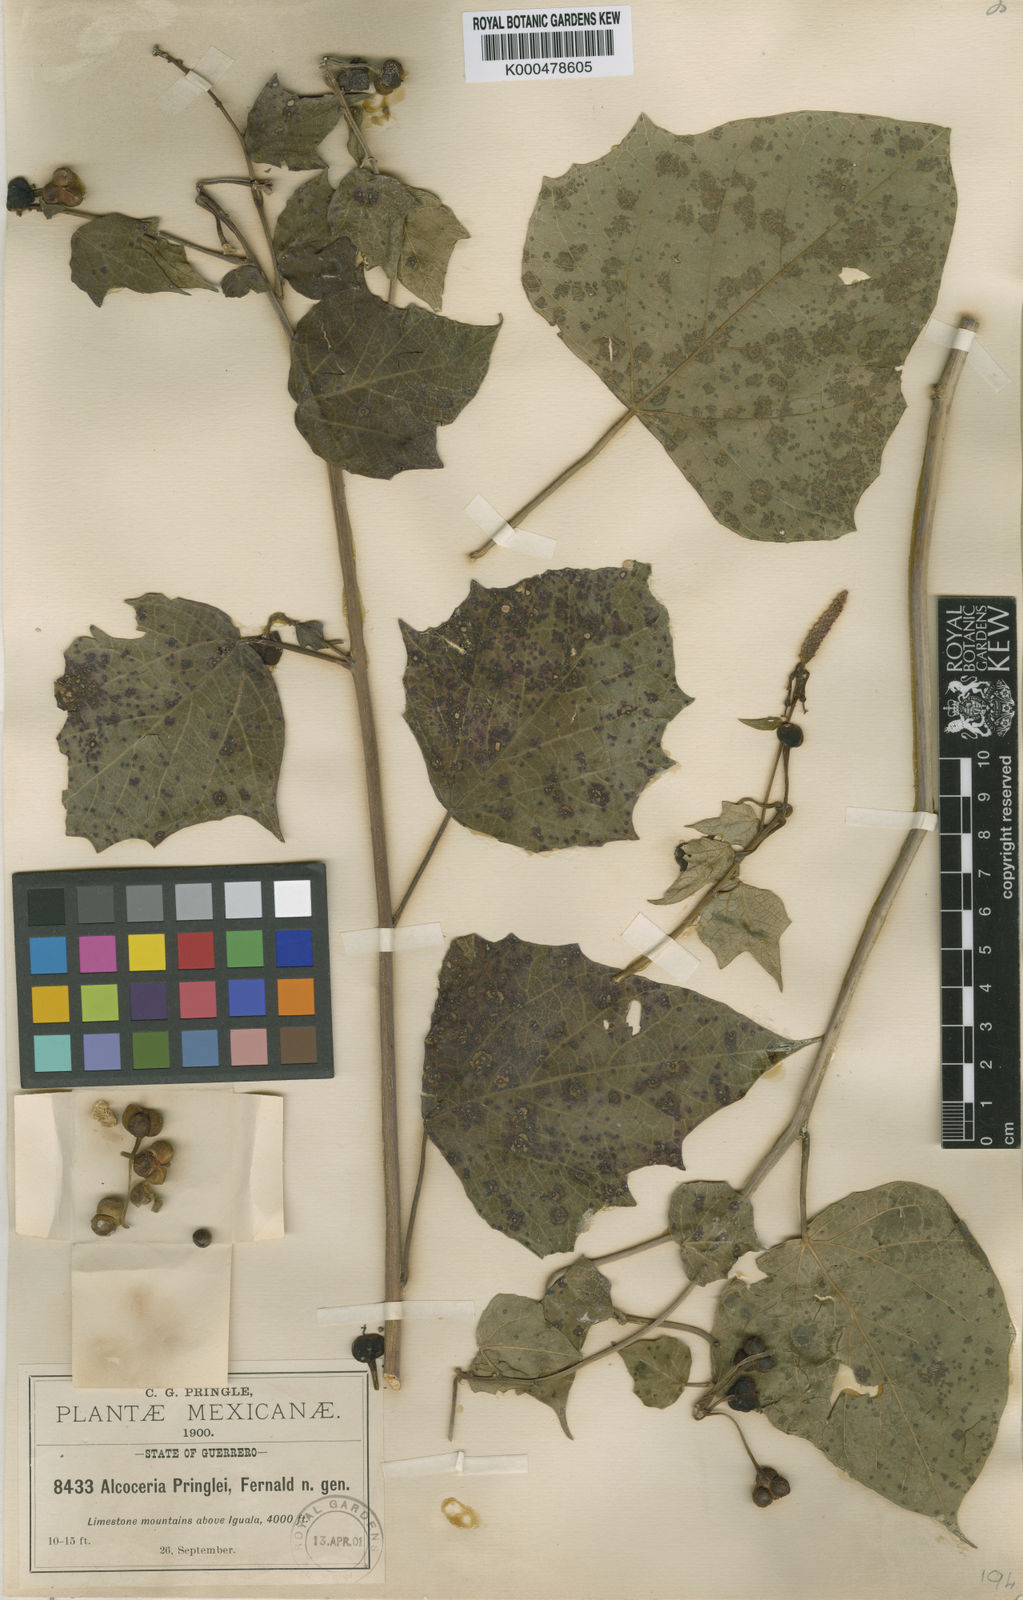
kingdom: Plantae
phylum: Tracheophyta
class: Magnoliopsida
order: Malpighiales
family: Euphorbiaceae
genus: Dalembertia
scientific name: Dalembertia populifolia
